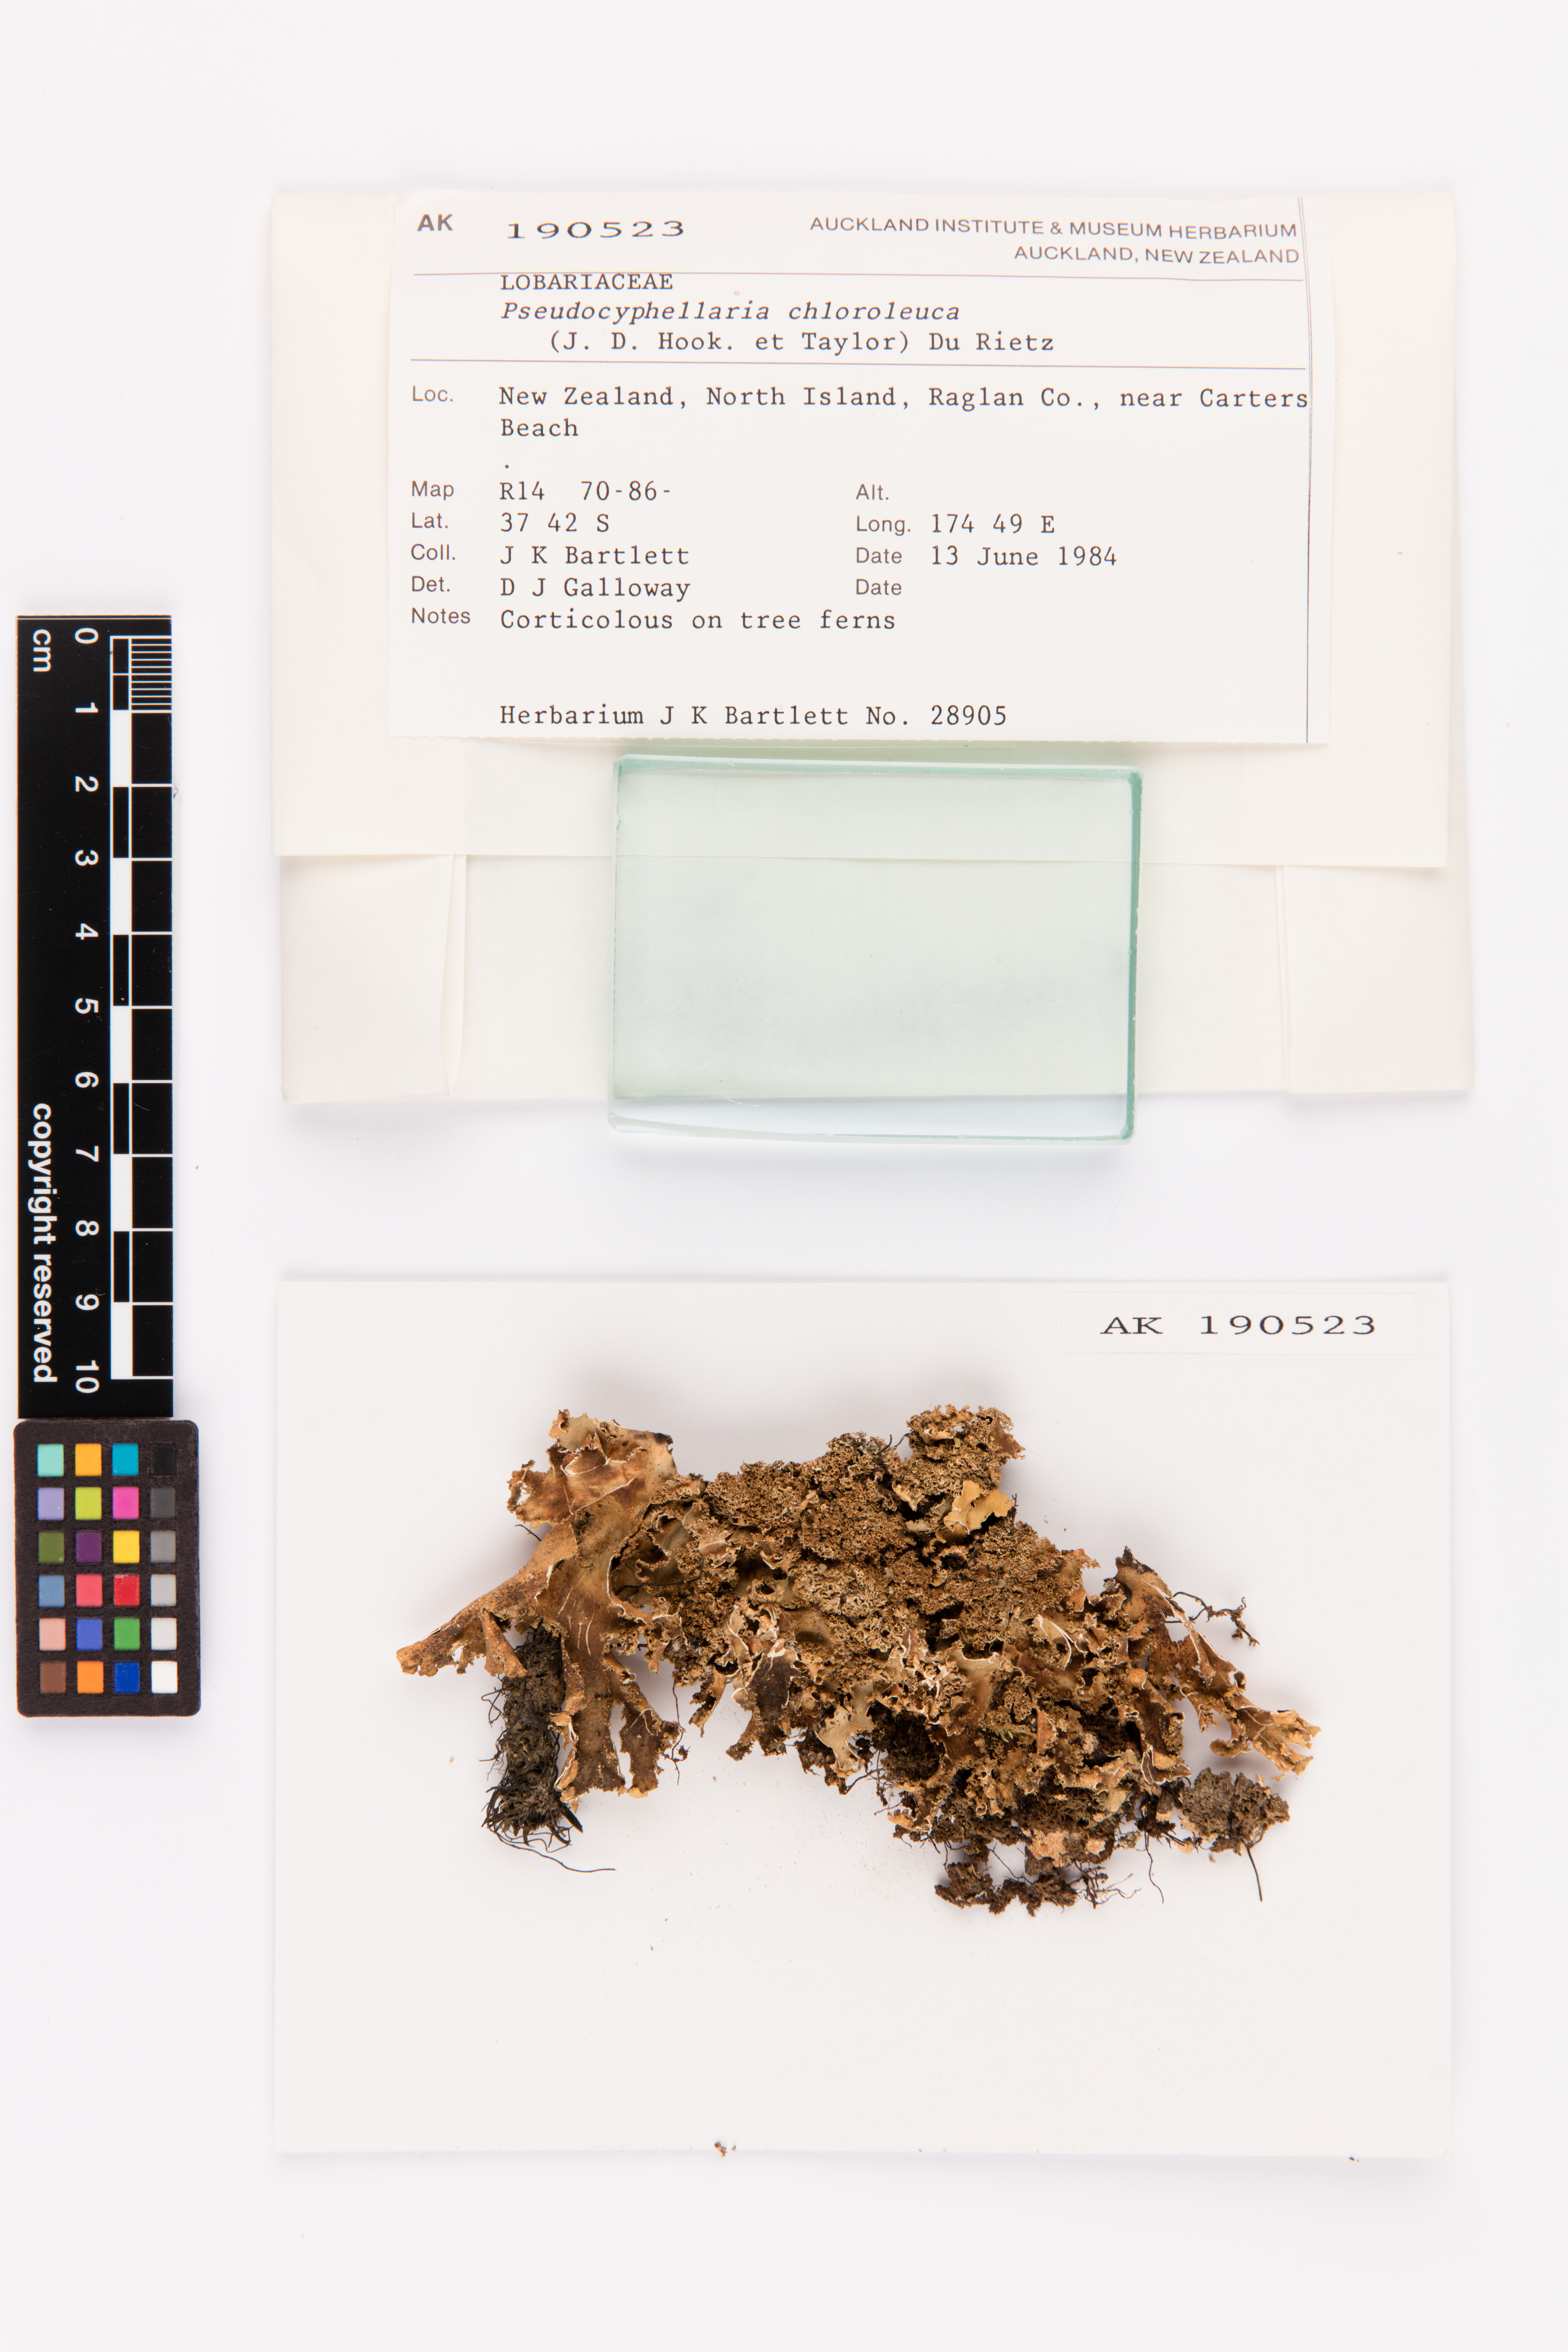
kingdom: Fungi
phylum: Ascomycota
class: Lecanoromycetes
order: Peltigerales
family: Lobariaceae
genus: Pseudocyphellaria
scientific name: Pseudocyphellaria chloroleuca
